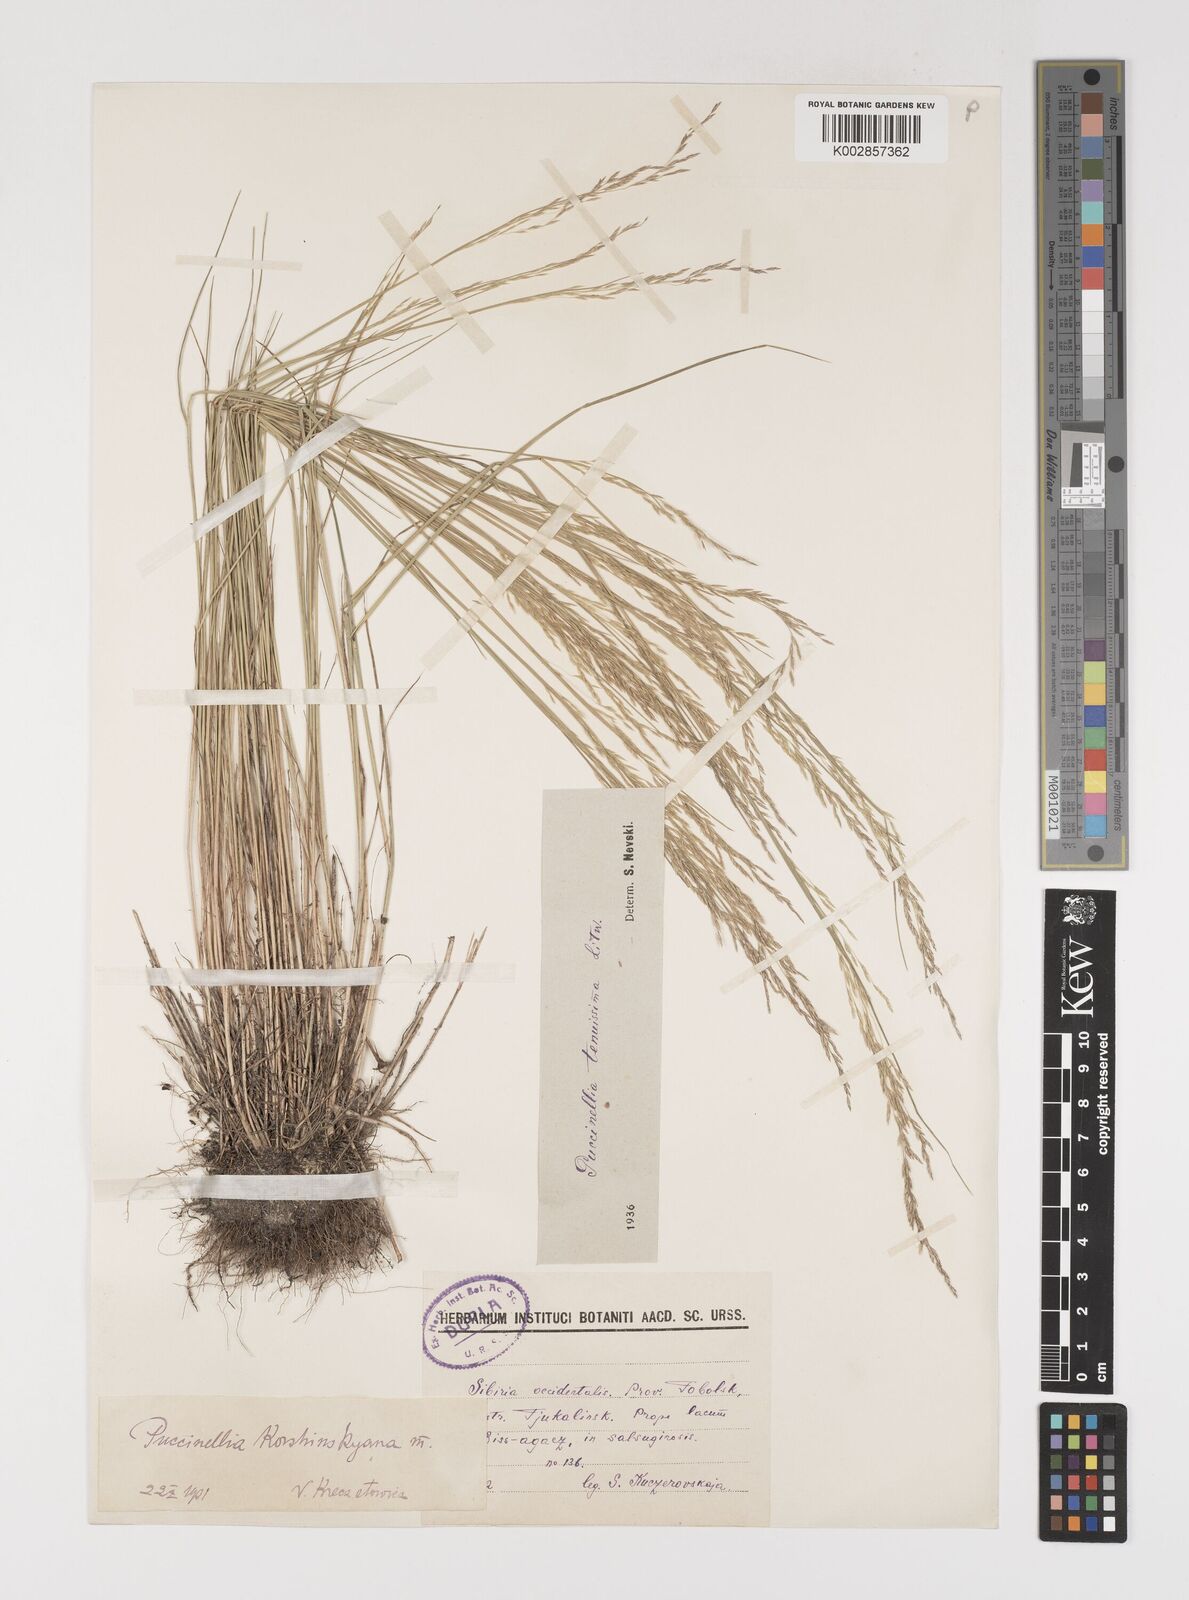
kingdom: Plantae
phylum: Tracheophyta
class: Liliopsida
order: Poales
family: Poaceae
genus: Puccinellia
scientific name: Puccinellia tenuissima
